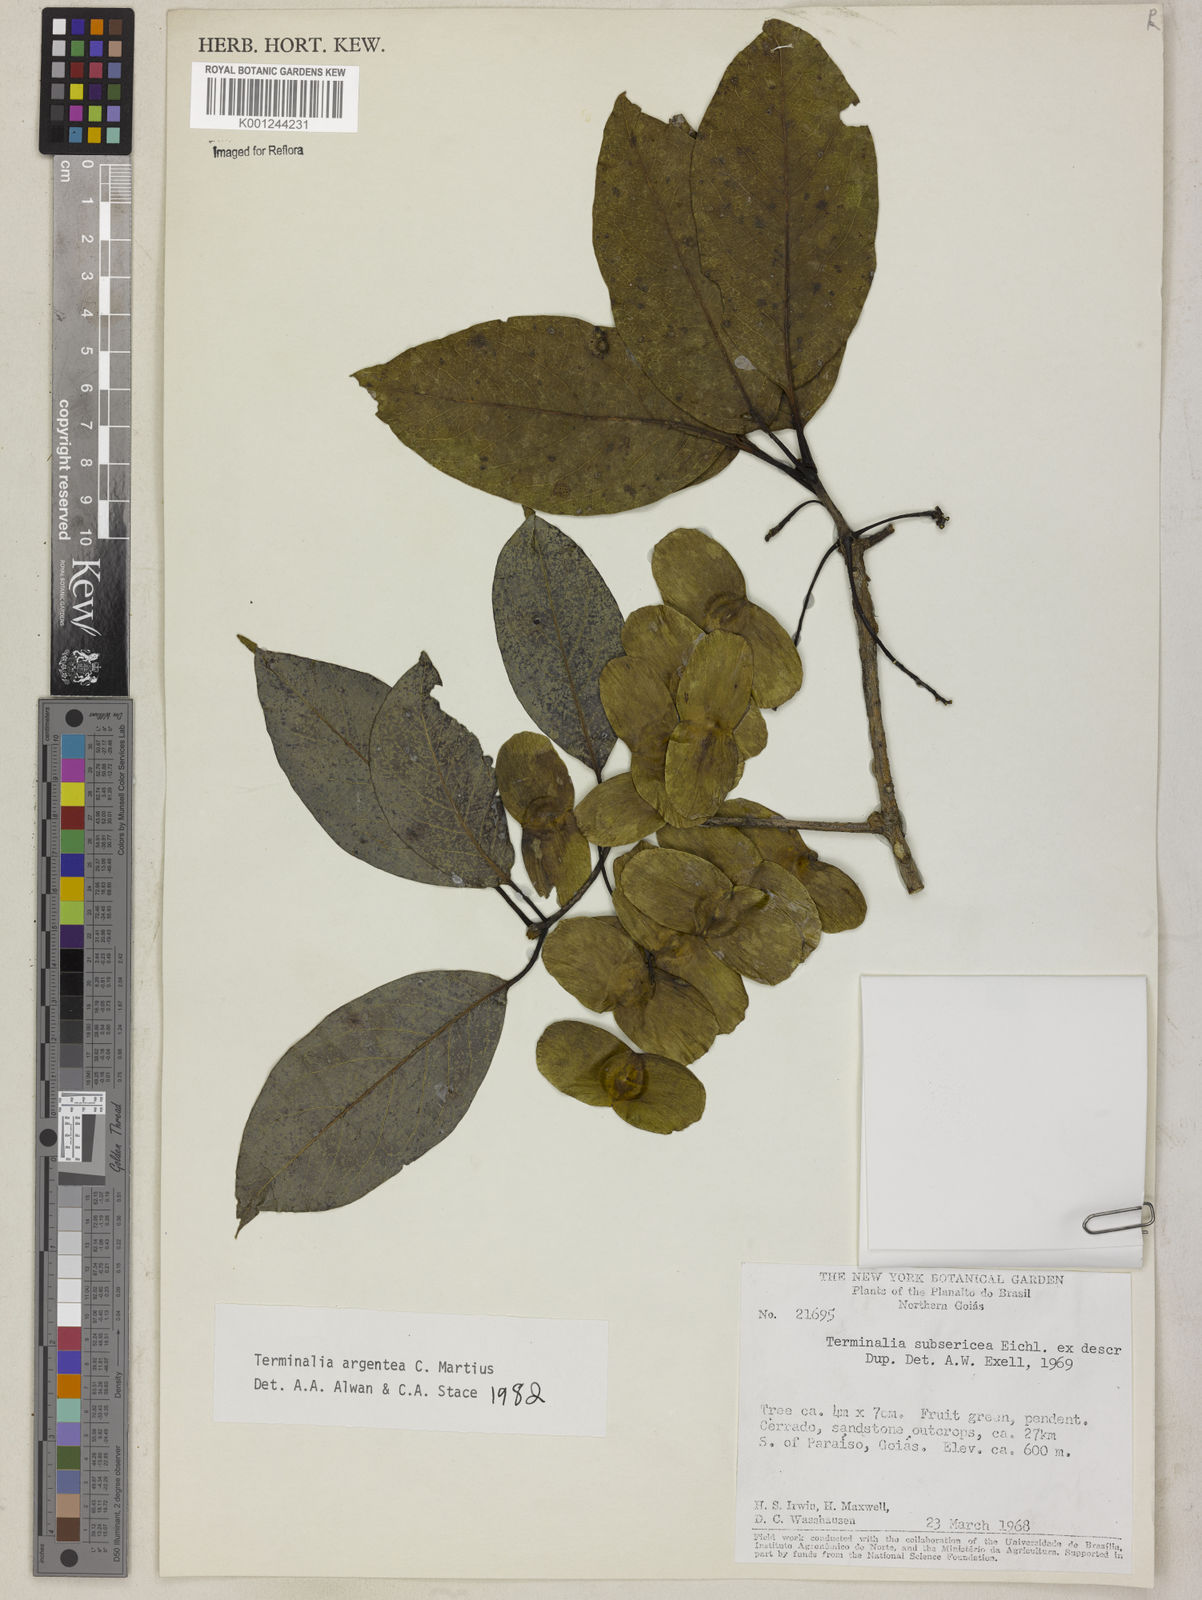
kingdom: Plantae
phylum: Tracheophyta
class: Magnoliopsida
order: Myrtales
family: Combretaceae
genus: Terminalia
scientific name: Terminalia argentea
